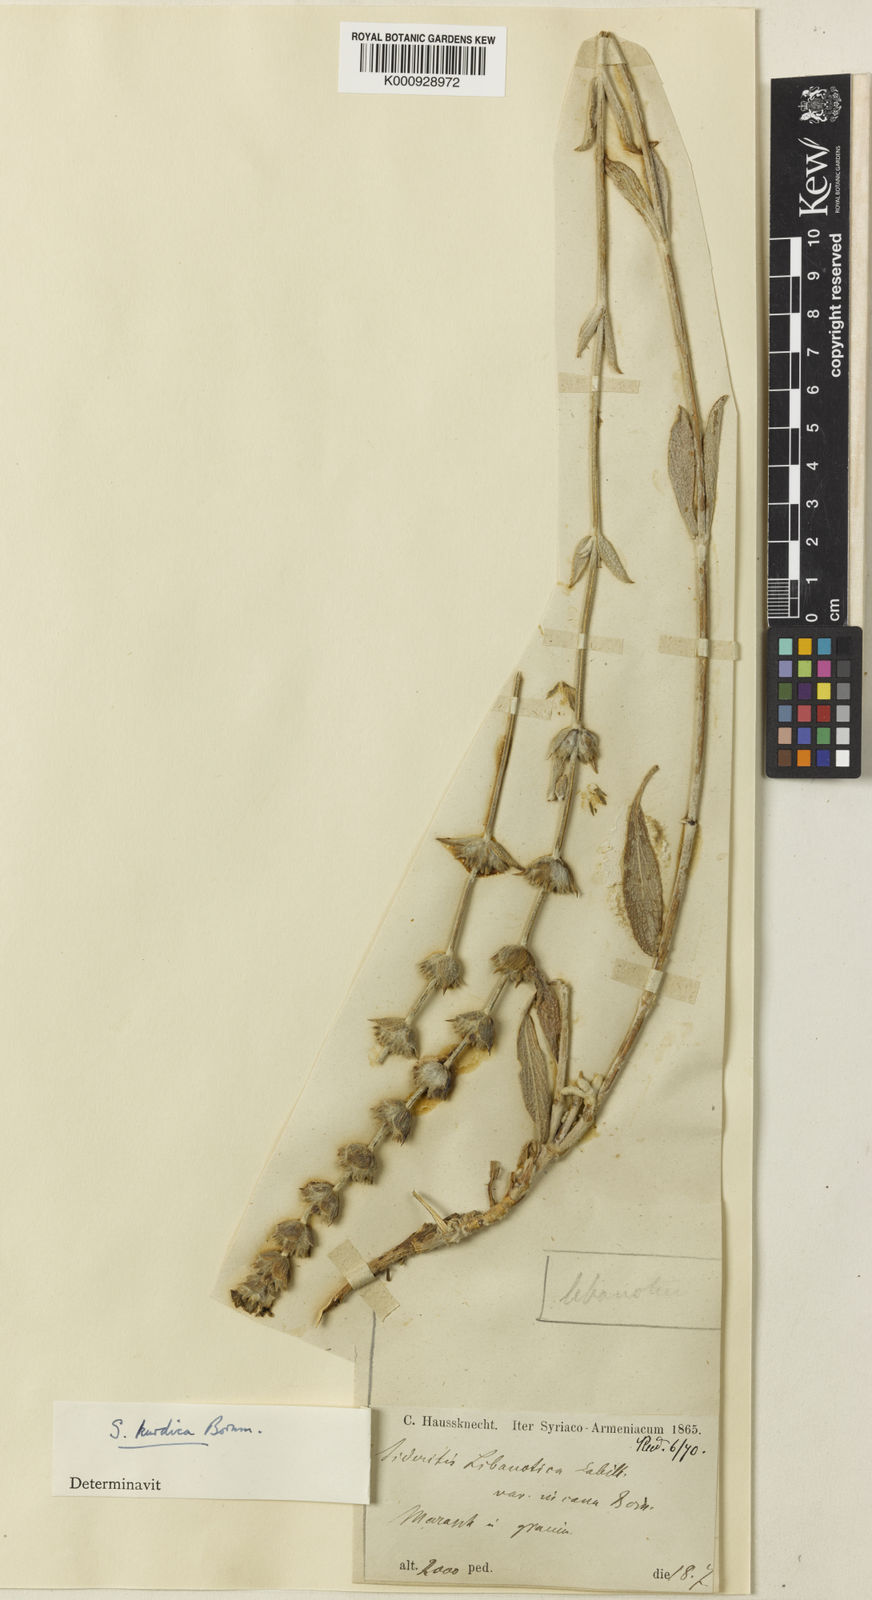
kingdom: Plantae
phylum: Tracheophyta
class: Magnoliopsida
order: Lamiales
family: Lamiaceae
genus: Sideritis
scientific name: Sideritis pisidica
